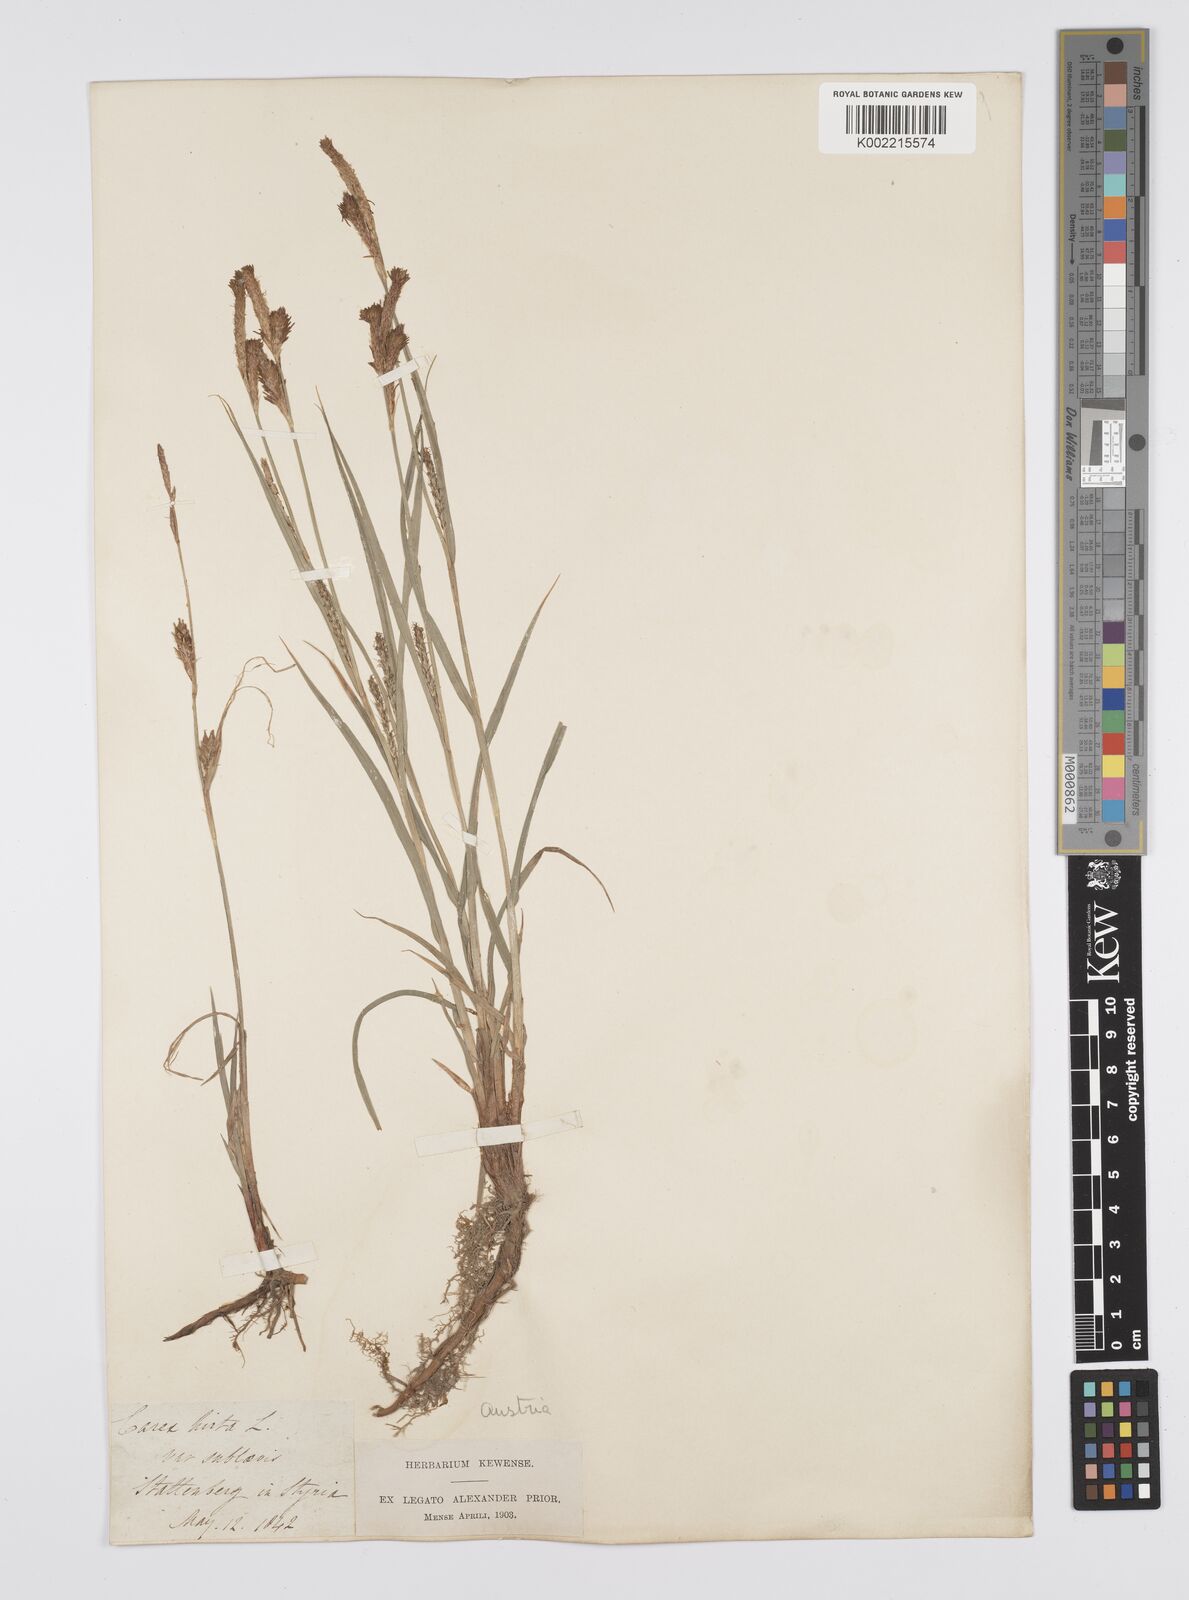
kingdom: Plantae
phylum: Tracheophyta
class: Liliopsida
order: Poales
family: Cyperaceae
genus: Carex
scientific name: Carex hirta
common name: Hairy sedge
